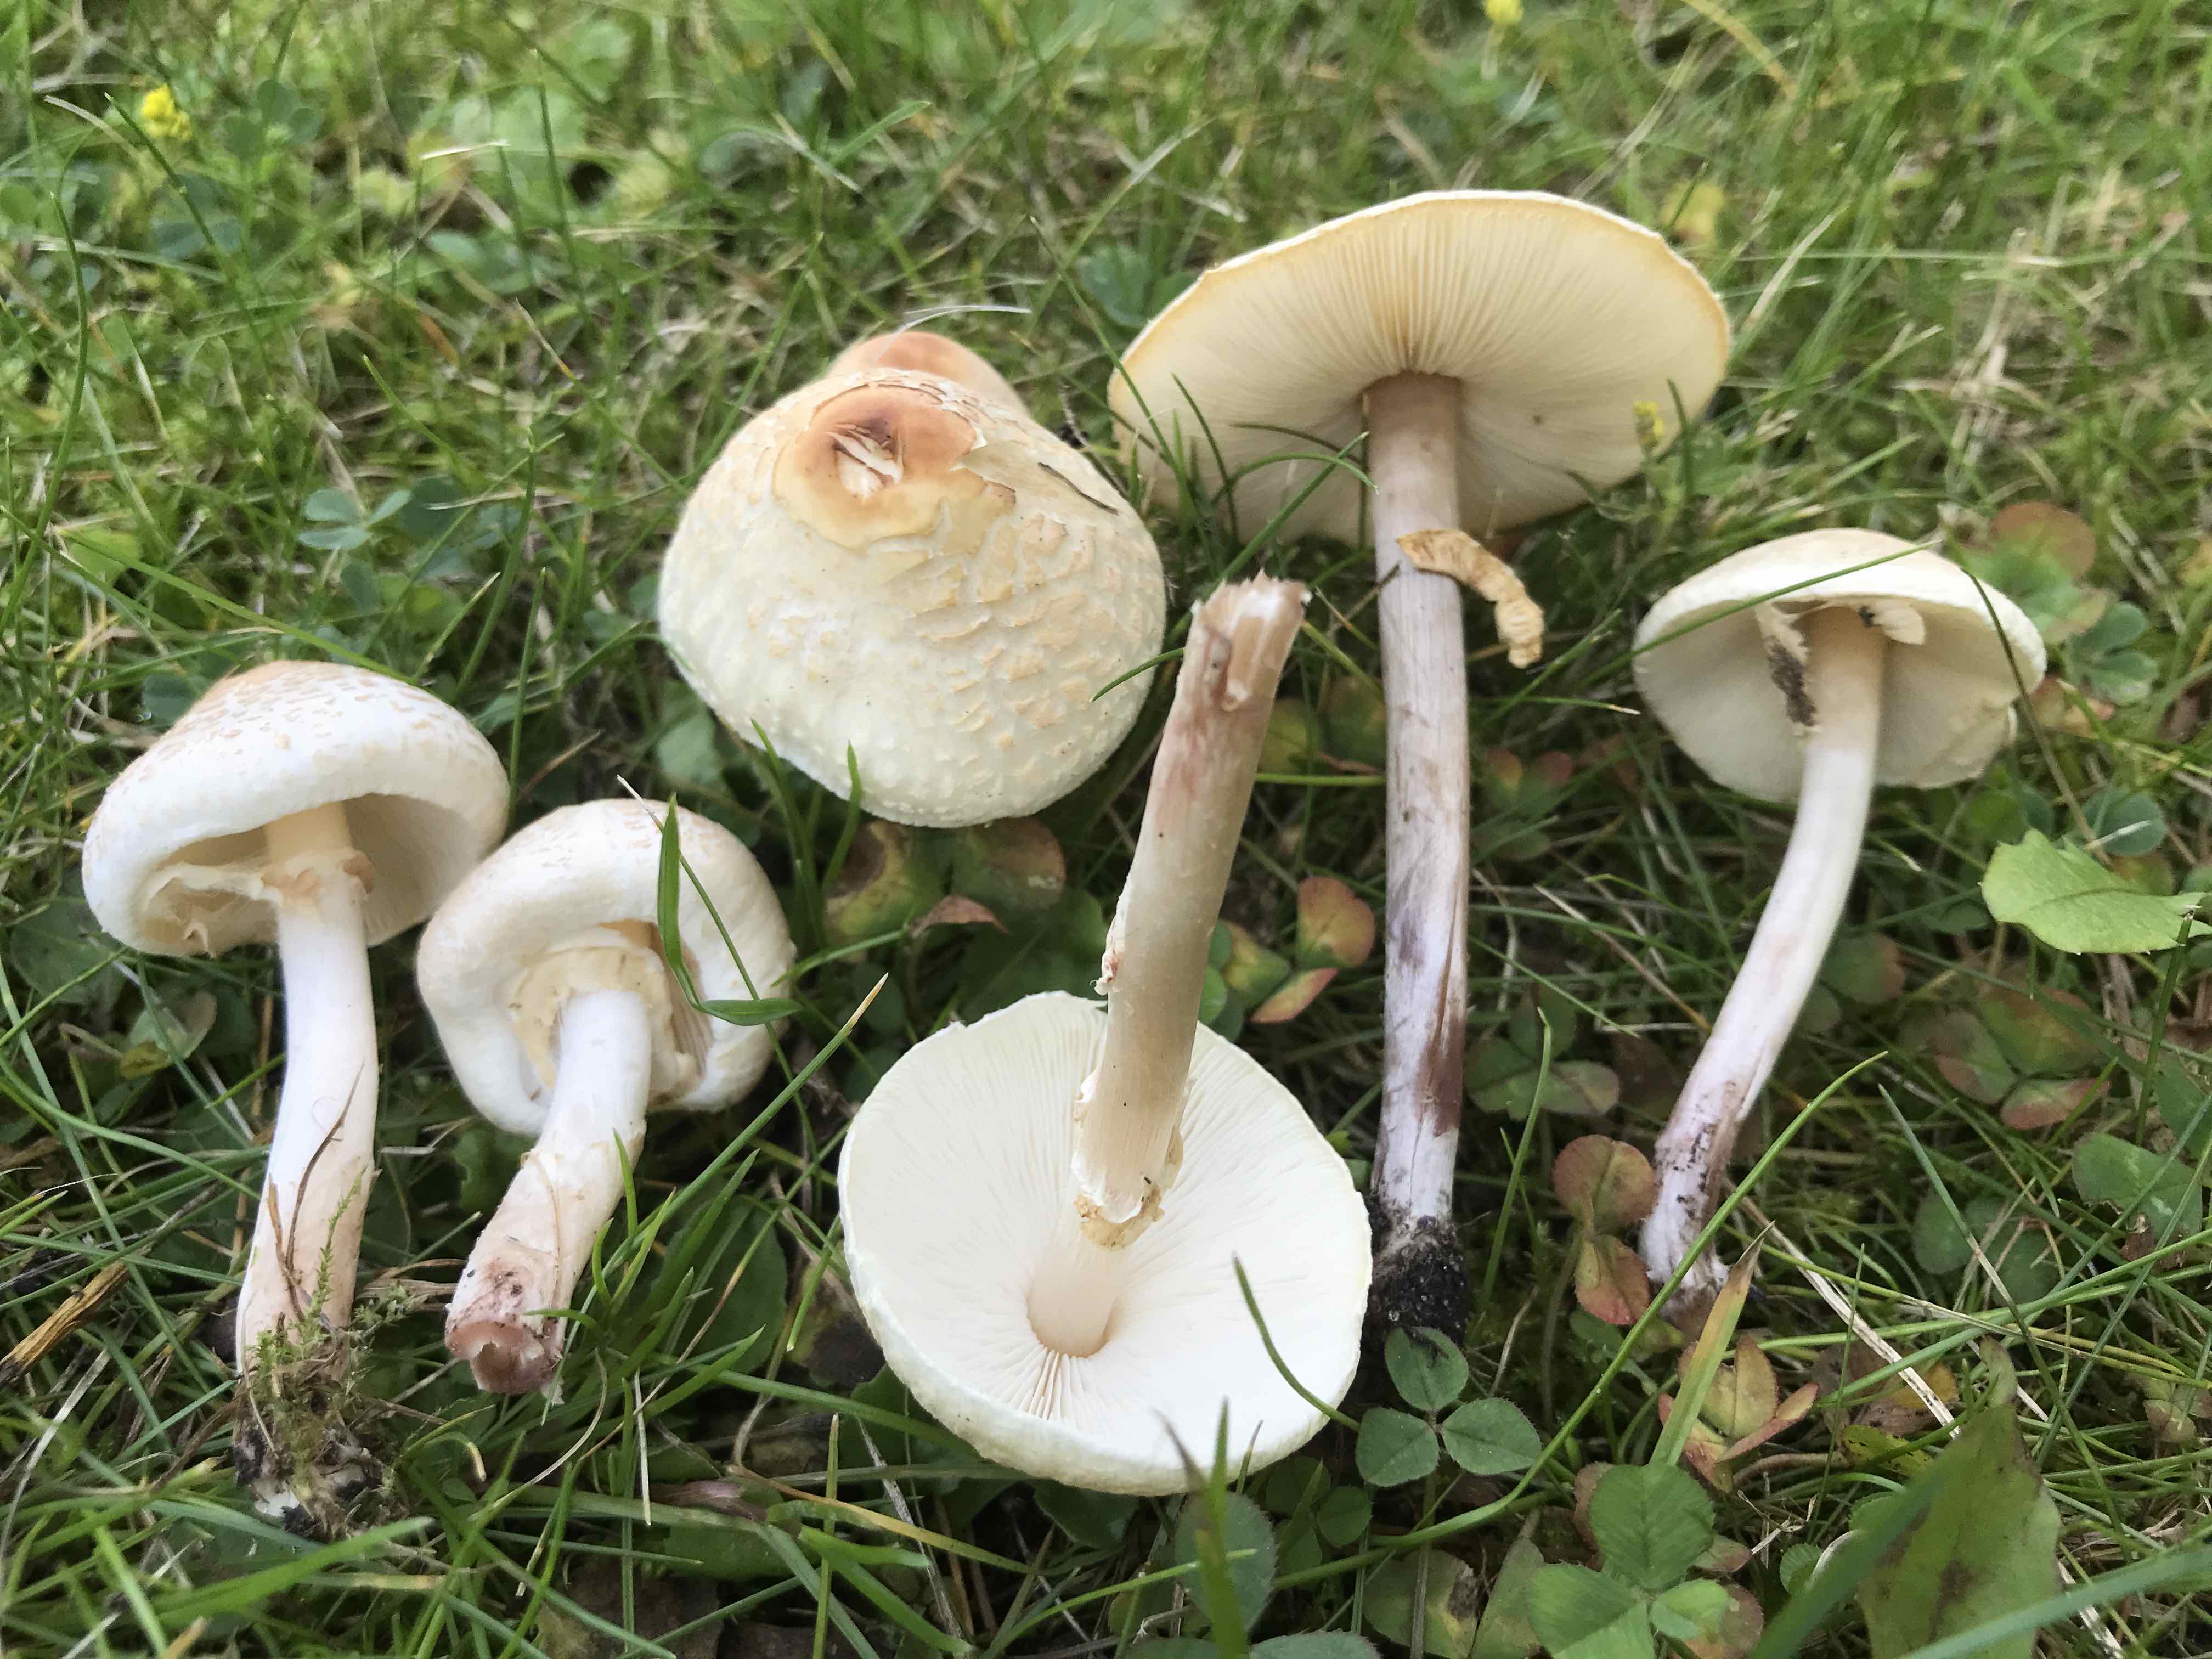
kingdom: Fungi
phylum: Basidiomycota
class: Agaricomycetes
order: Agaricales
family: Agaricaceae
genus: Lepiota
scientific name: Lepiota cristata
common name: stinkende parasolhat
